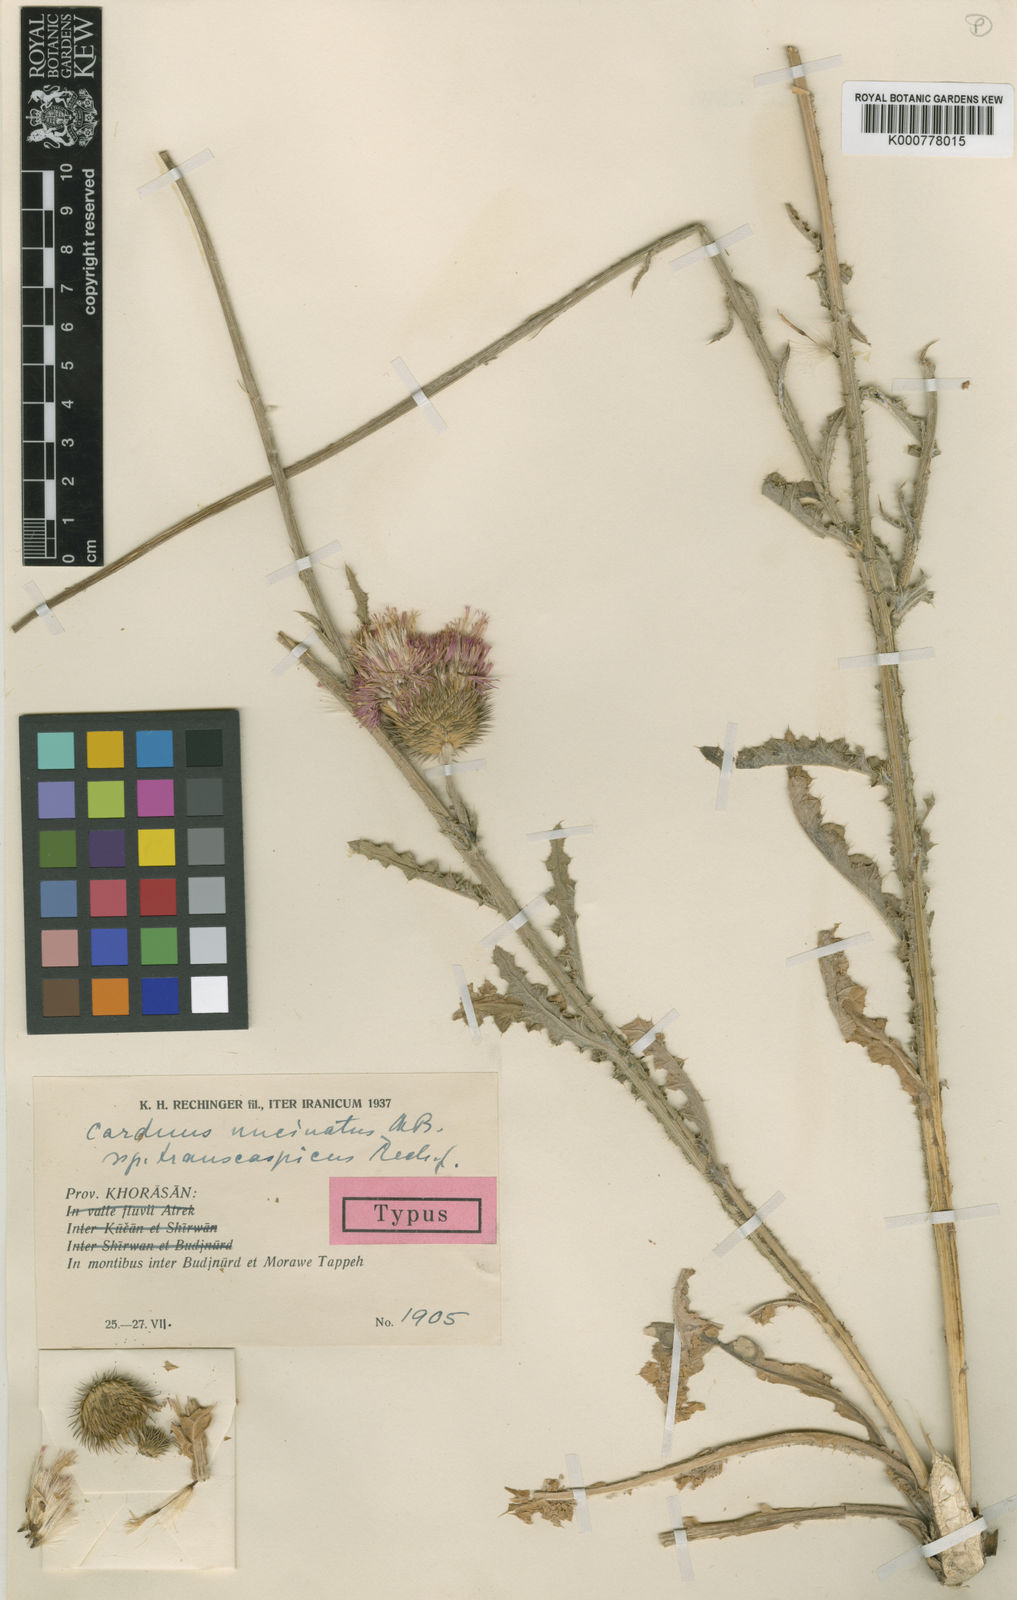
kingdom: Plantae
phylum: Tracheophyta
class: Magnoliopsida
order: Asterales
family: Asteraceae
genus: Carduus
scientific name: Carduus uncinatus
